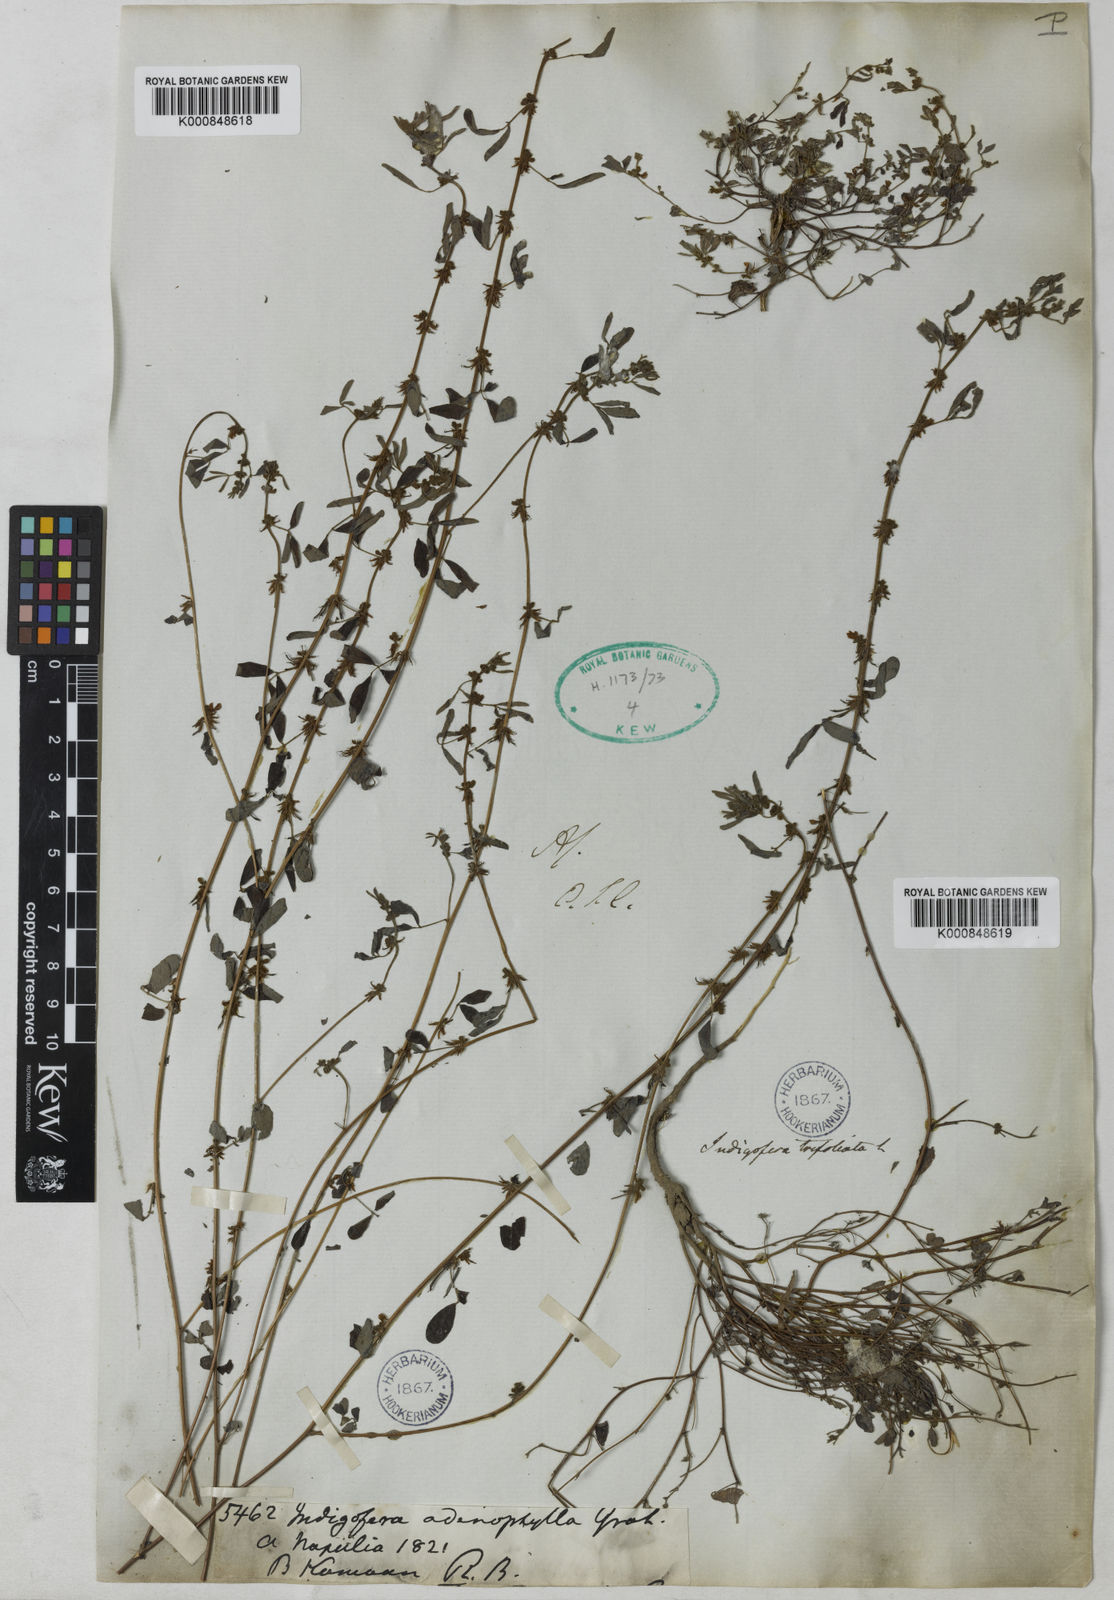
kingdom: Plantae
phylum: Tracheophyta
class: Magnoliopsida
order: Fabales
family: Fabaceae
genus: Indigofera
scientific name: Indigofera trifoliata
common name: Threeleaf indigo
